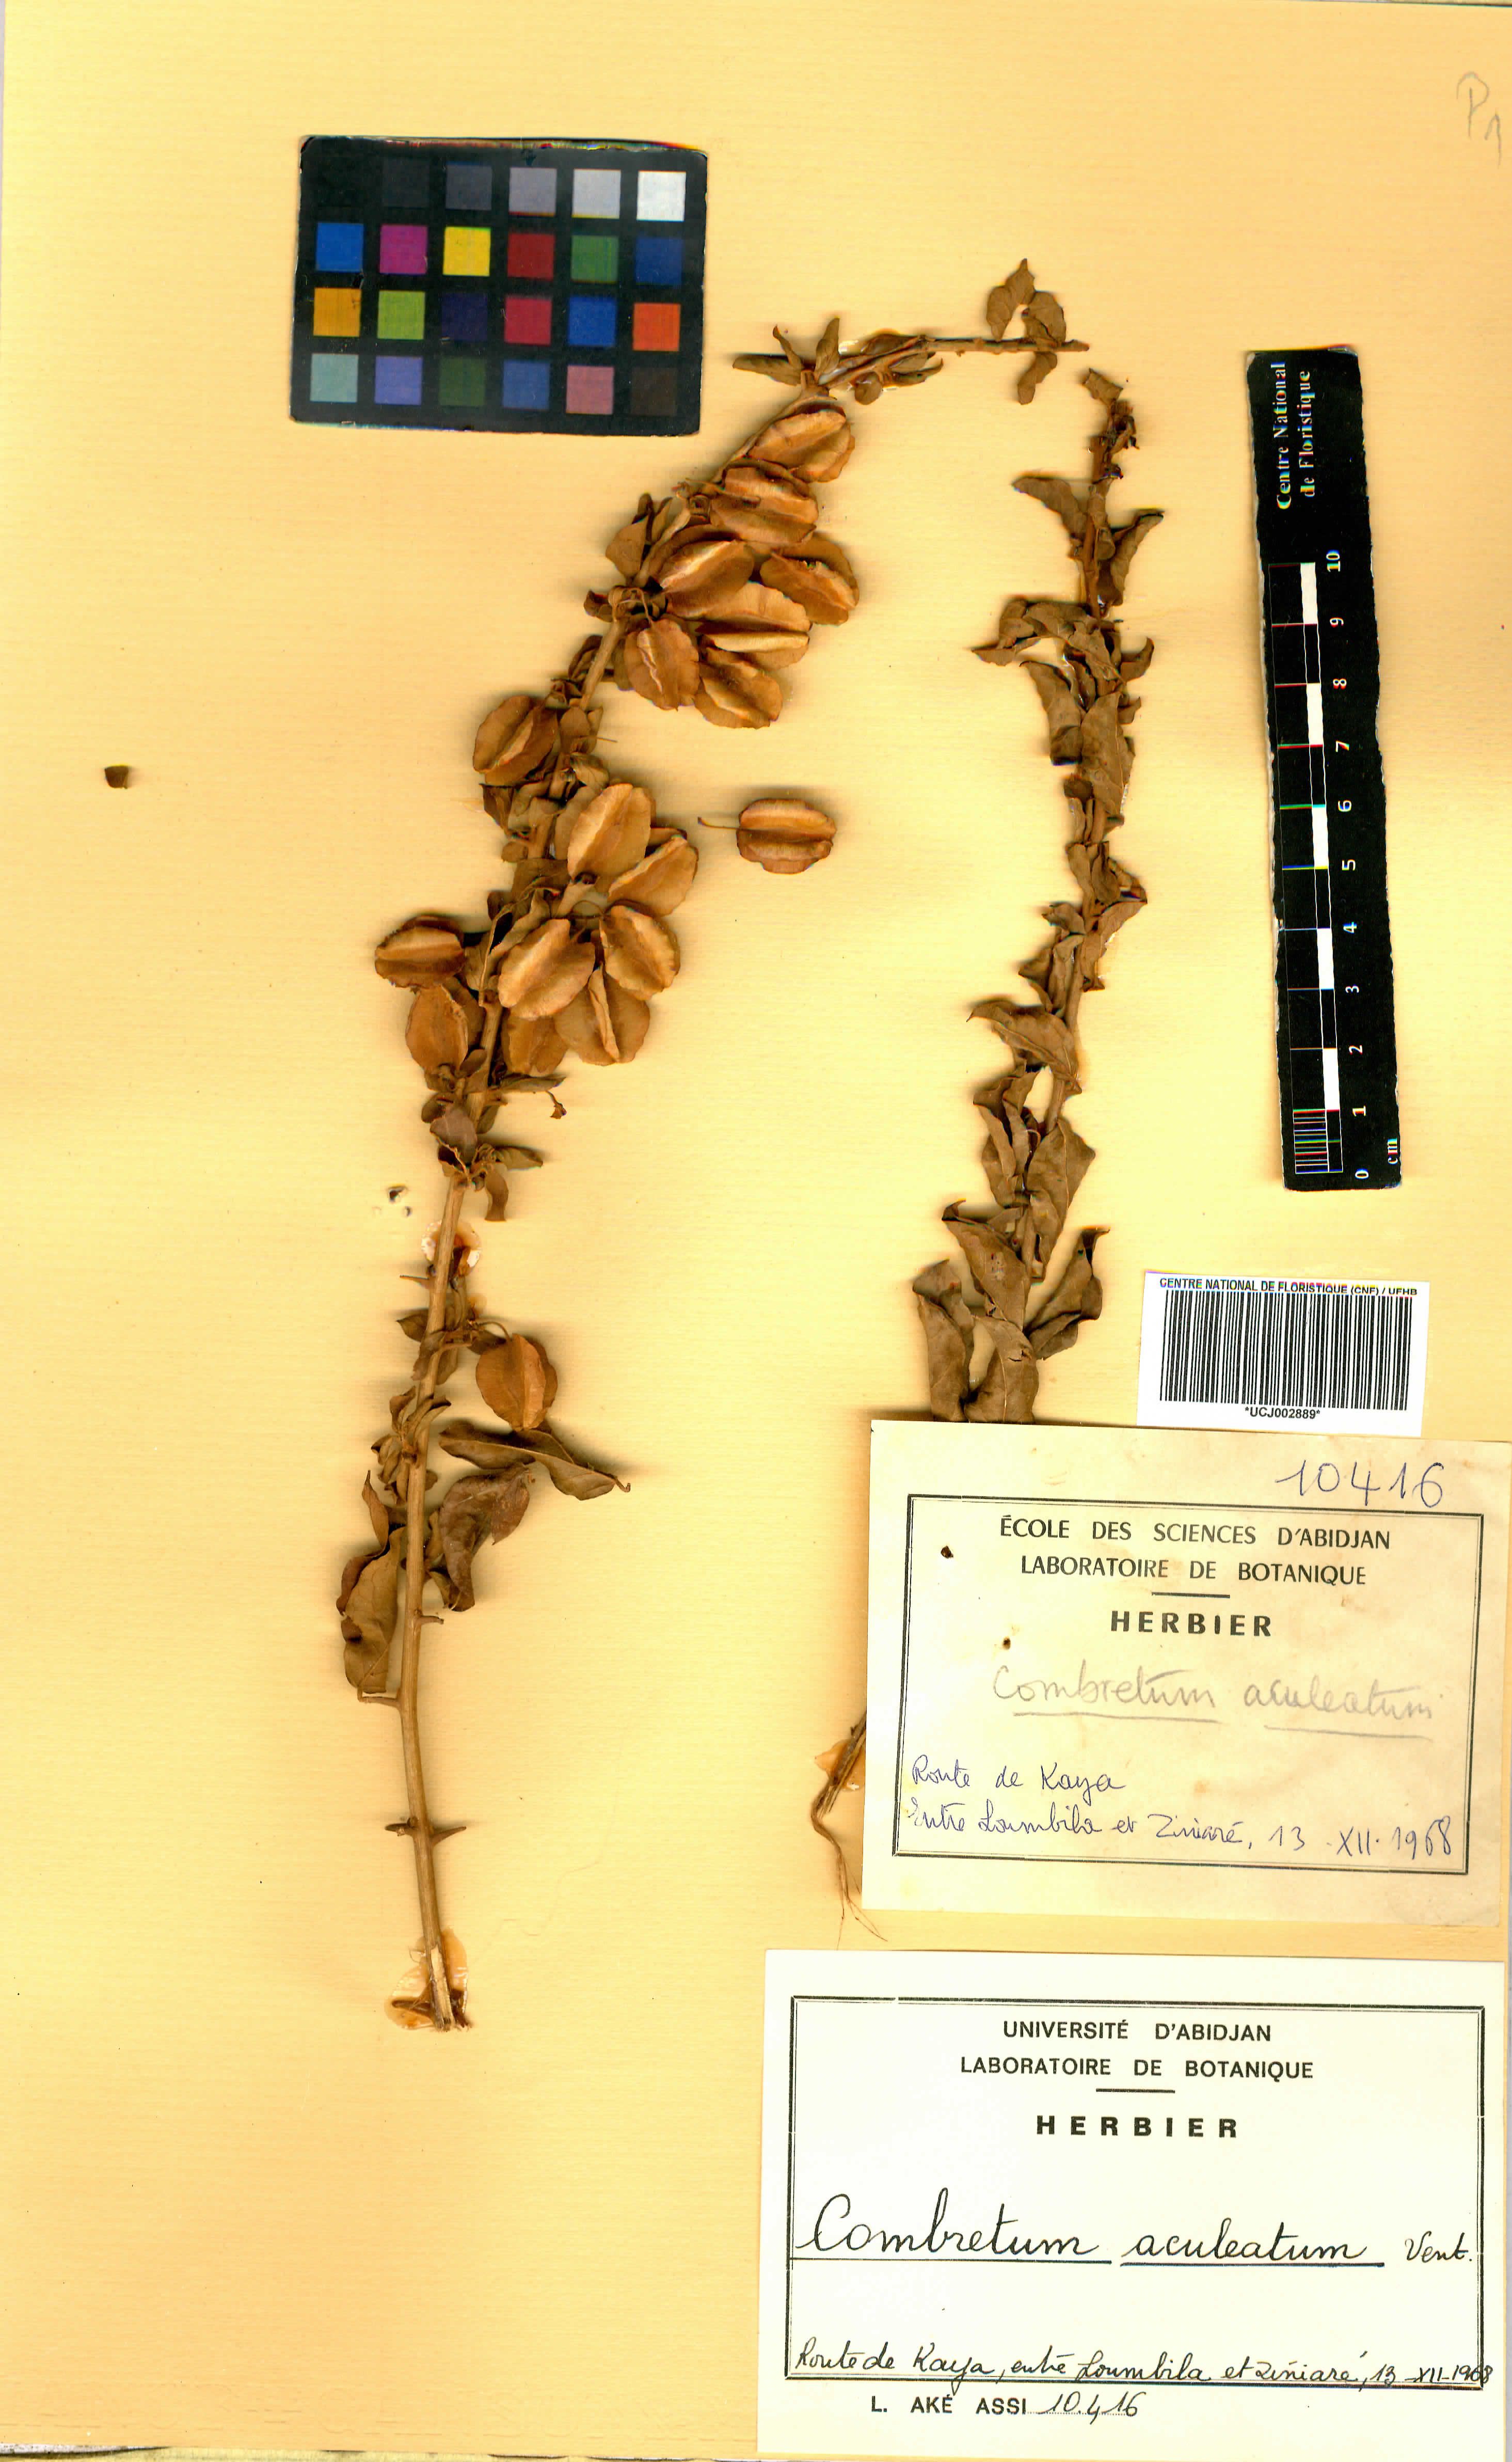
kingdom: Plantae
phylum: Tracheophyta
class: Magnoliopsida
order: Myrtales
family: Combretaceae
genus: Combretum
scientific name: Combretum aculeatum
